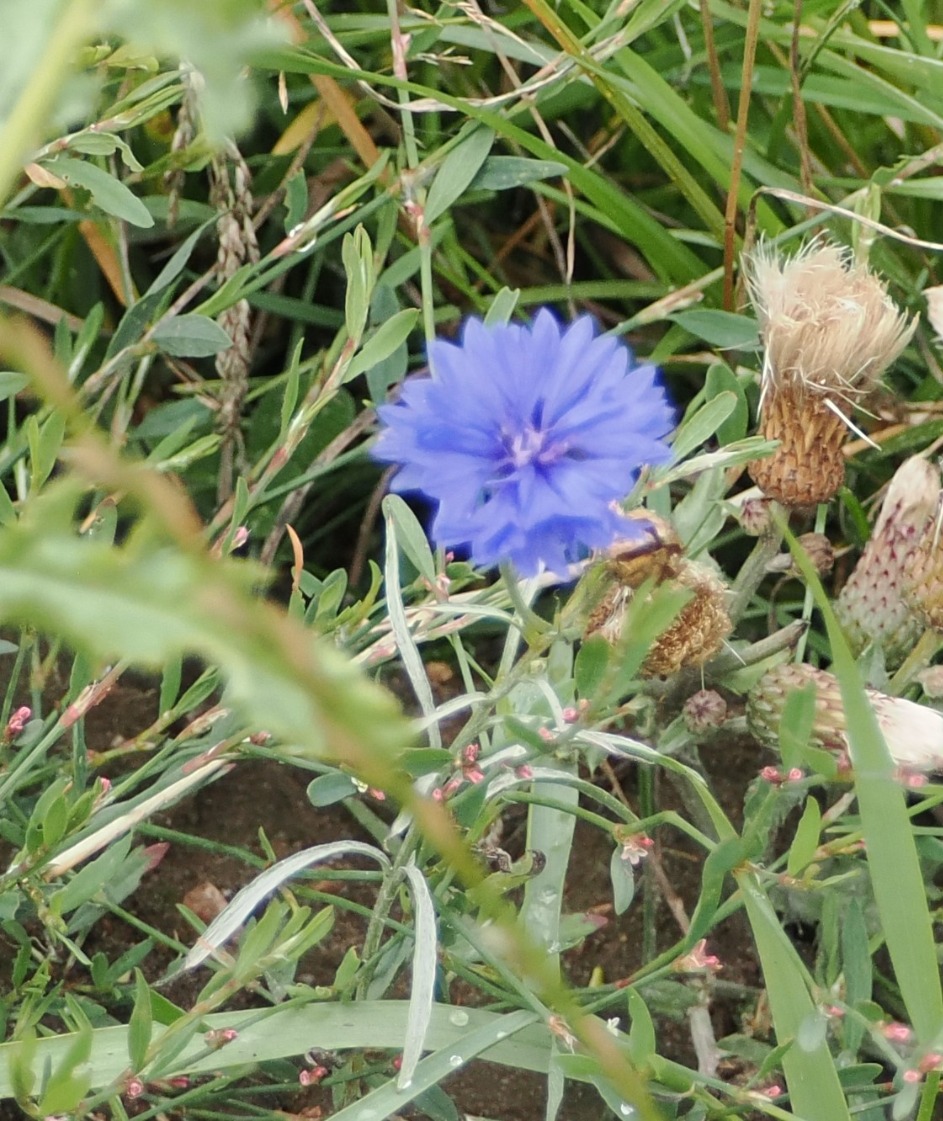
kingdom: Plantae
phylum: Tracheophyta
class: Magnoliopsida
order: Asterales
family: Asteraceae
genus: Centaurea
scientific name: Centaurea cyanus
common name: Kornblomst
